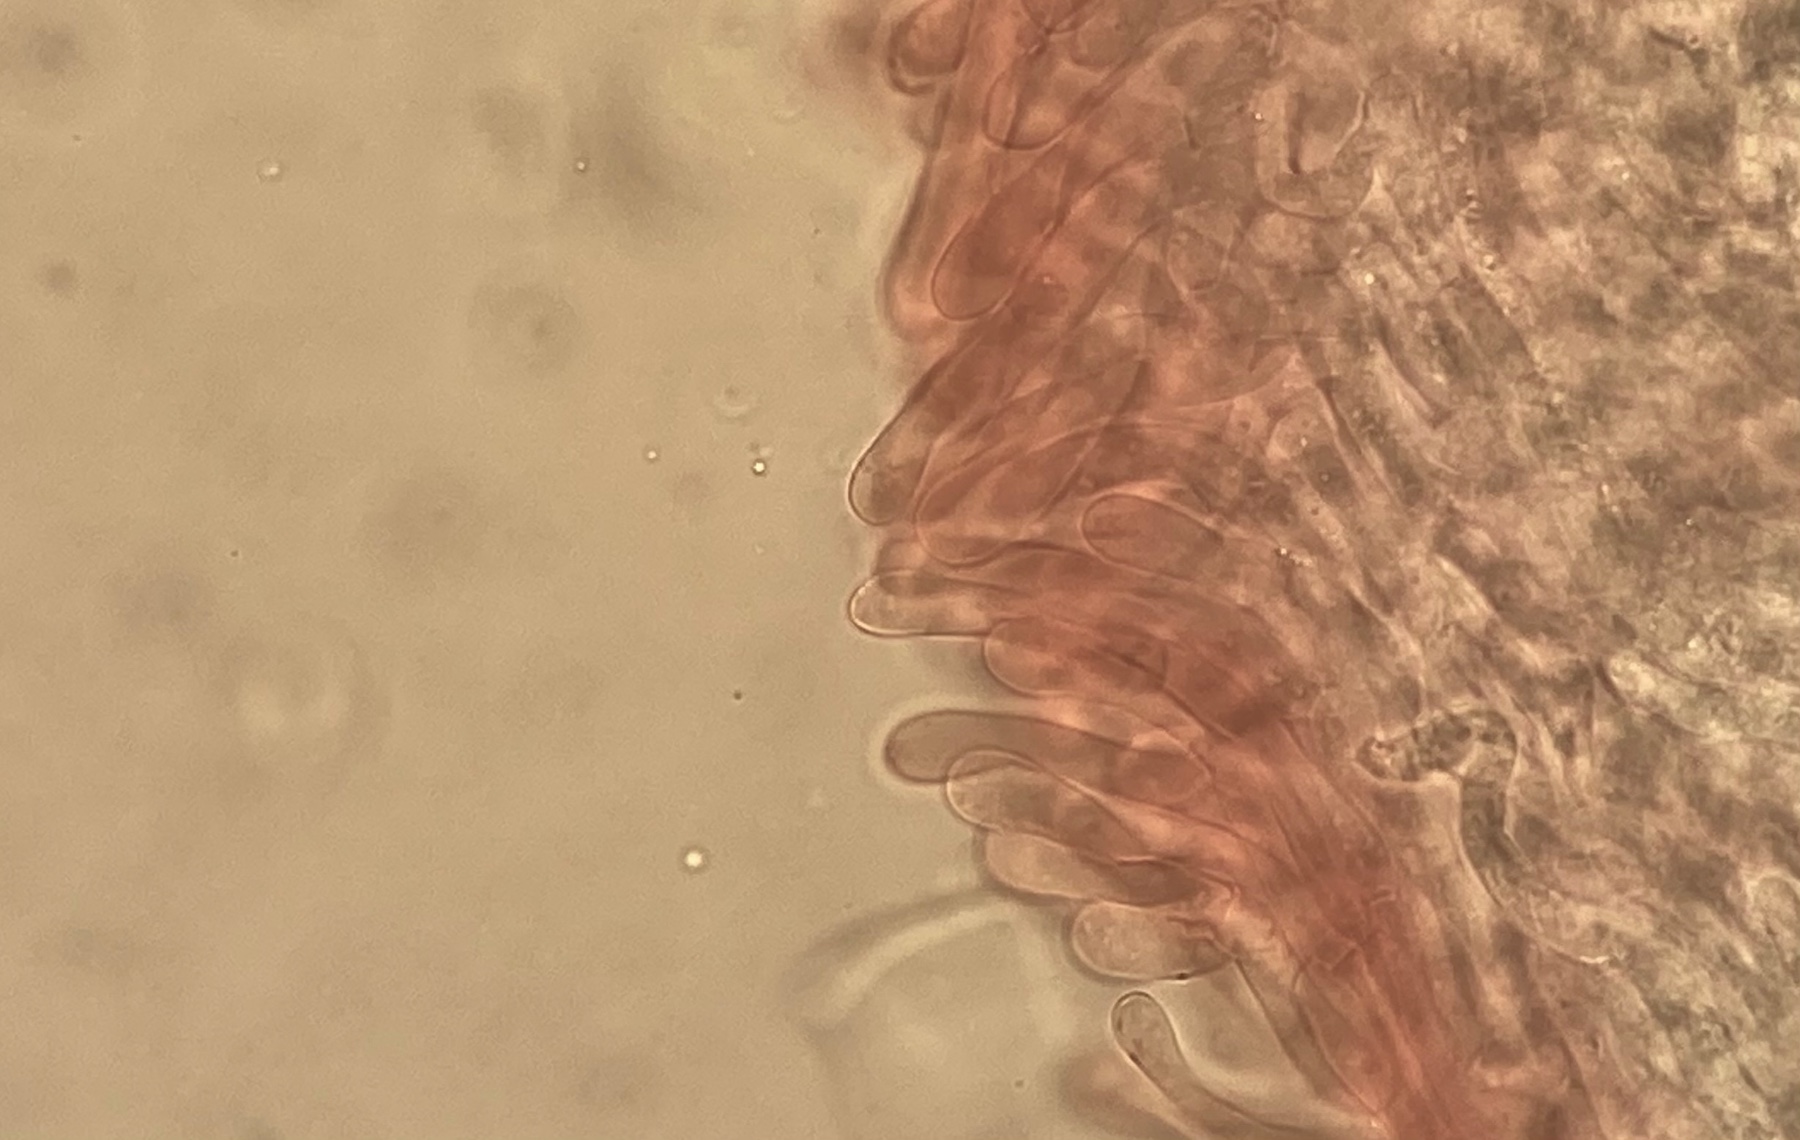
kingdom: Fungi
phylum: Basidiomycota
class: Agaricomycetes
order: Agaricales
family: Entolomataceae
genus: Entoloma
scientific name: Entoloma chalybeum
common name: blåbladet rødblad
